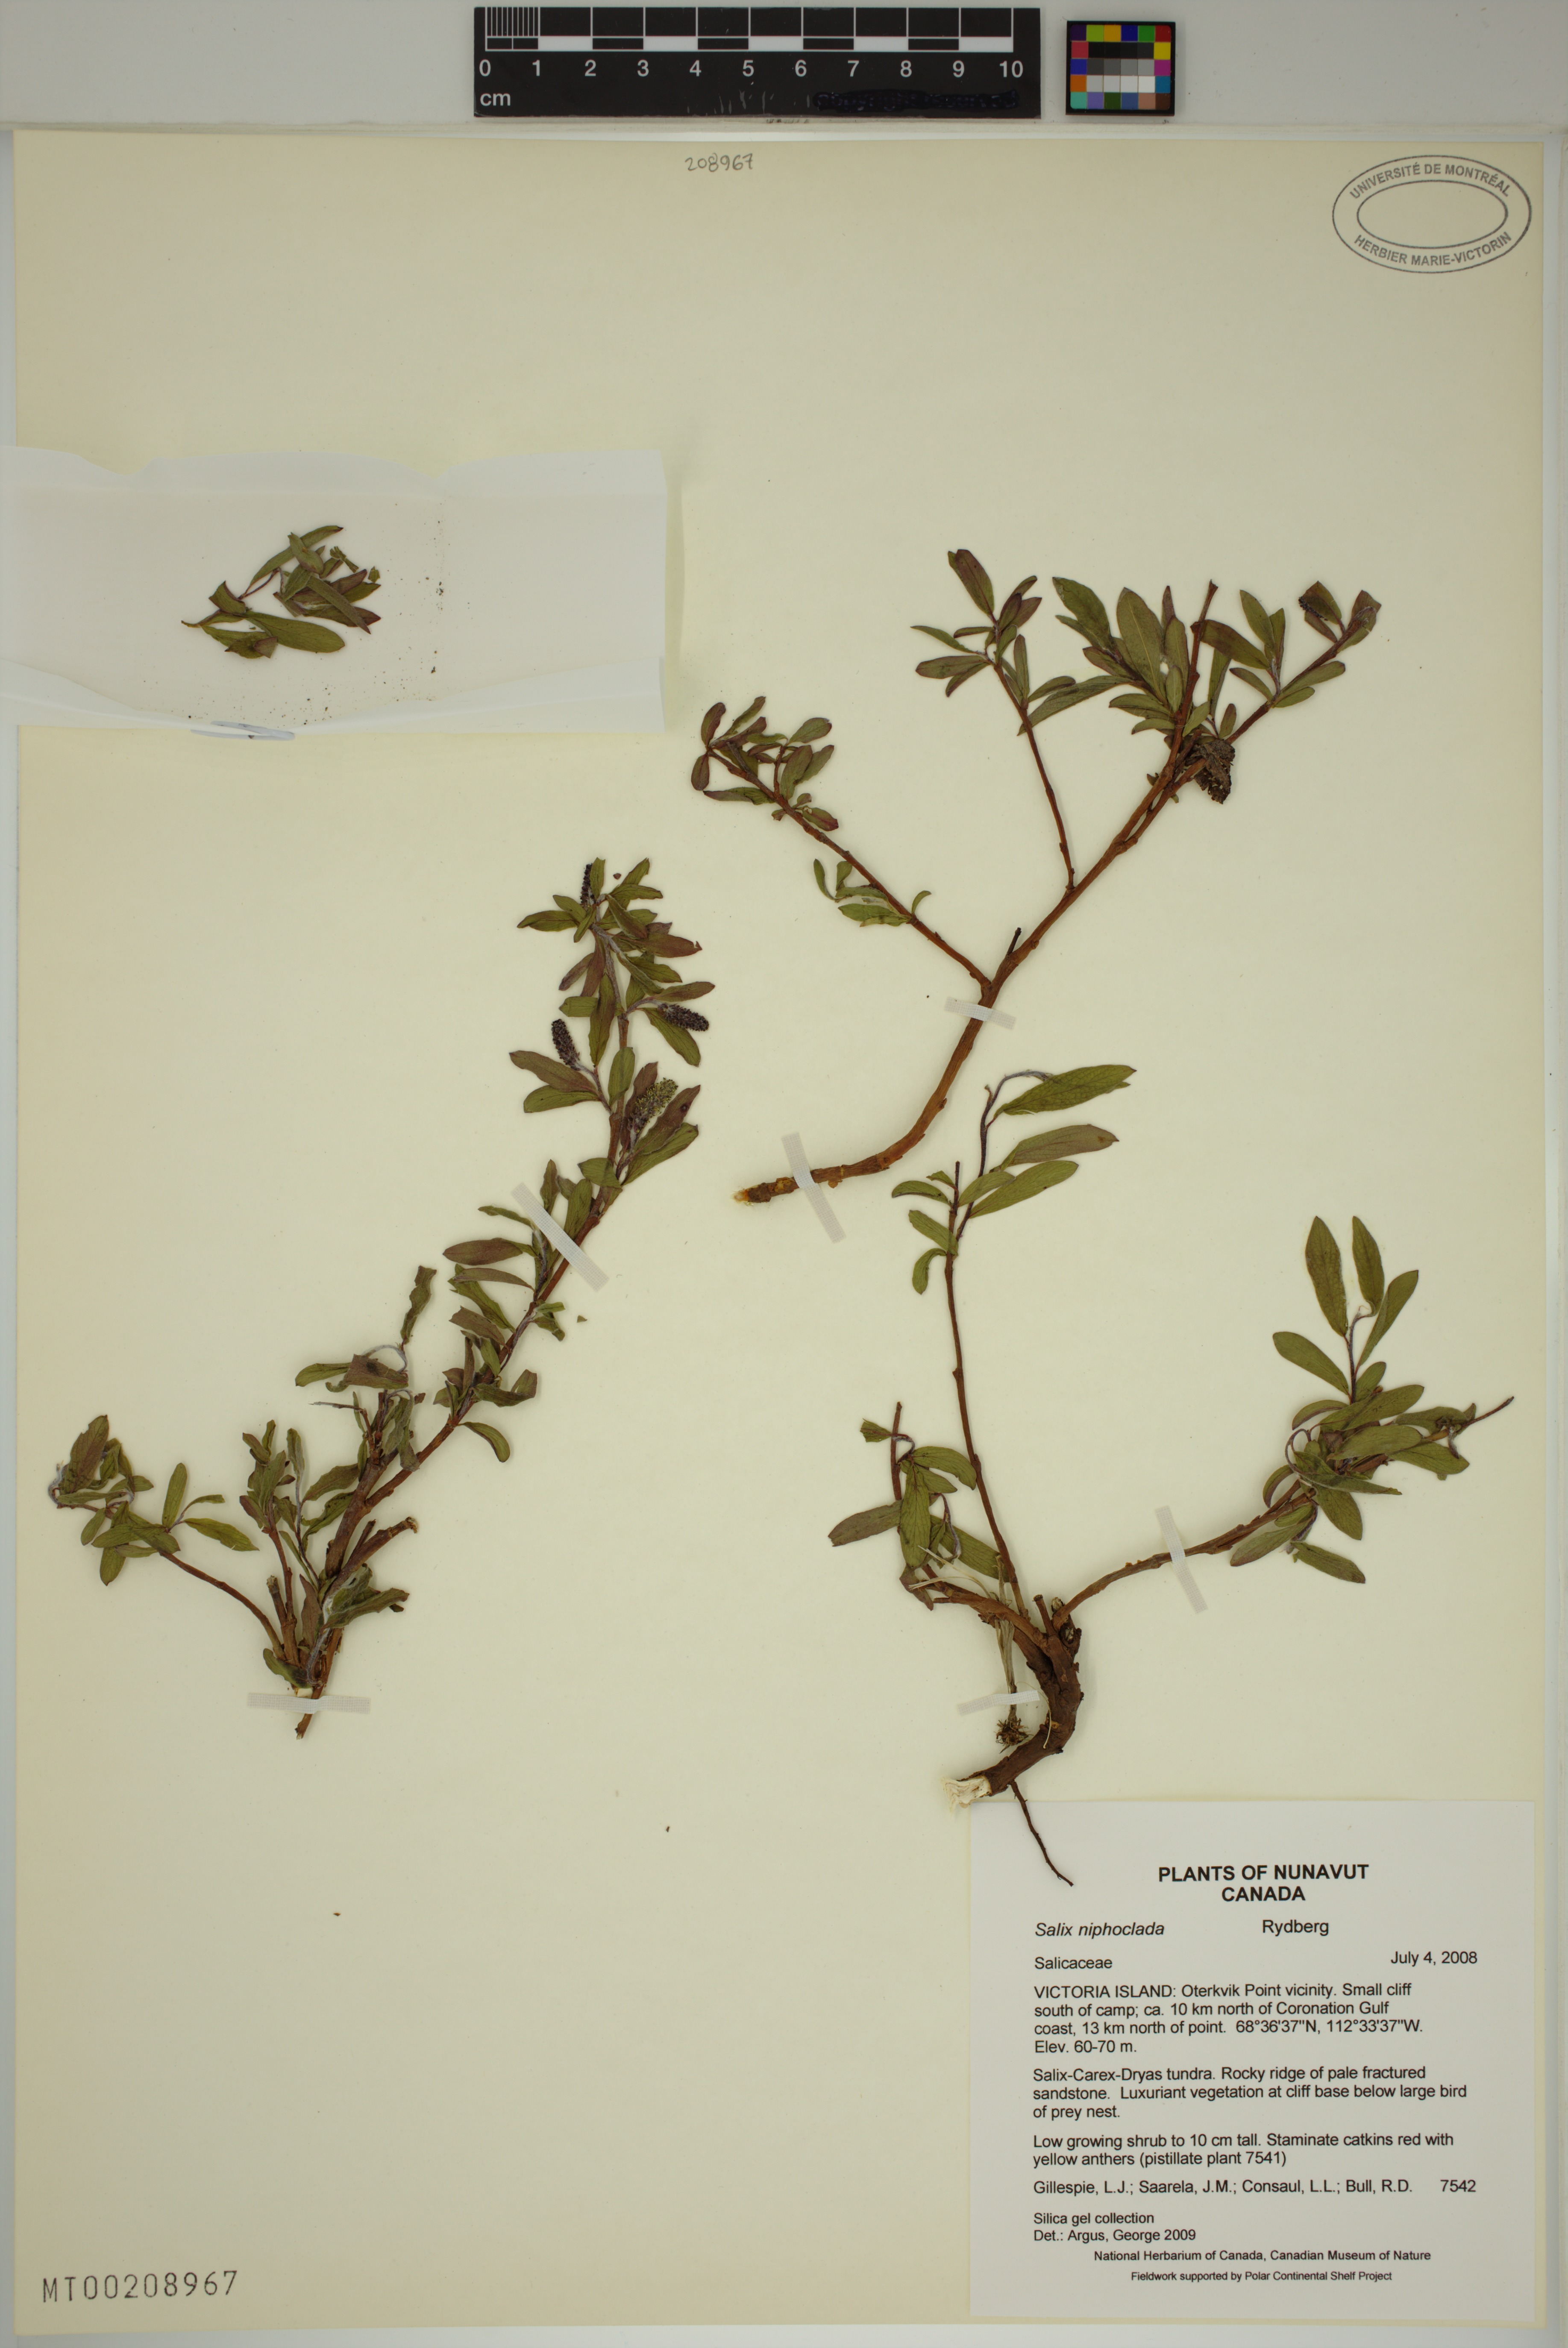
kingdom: Plantae
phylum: Tracheophyta
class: Magnoliopsida
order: Malpighiales
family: Salicaceae
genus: Salix
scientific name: Salix niphoclada
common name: Barren-ground willow
